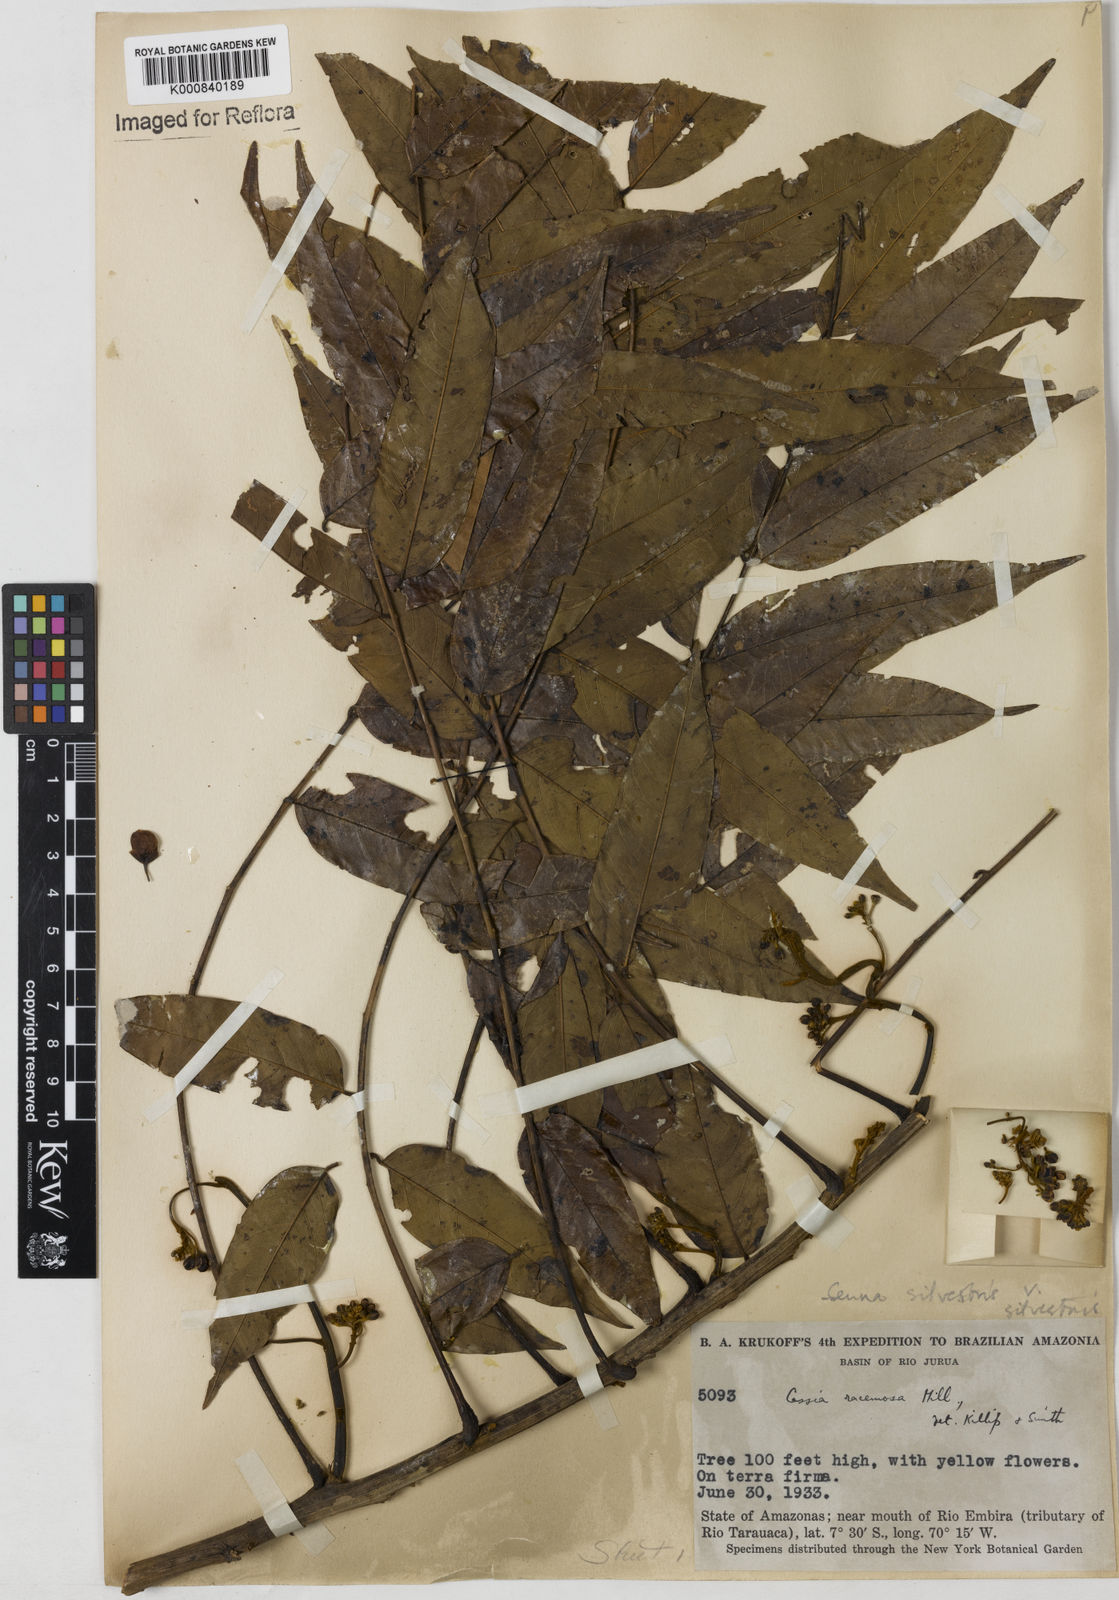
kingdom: Plantae
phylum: Tracheophyta
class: Magnoliopsida
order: Fabales
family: Fabaceae
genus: Senna
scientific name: Senna silvestris
